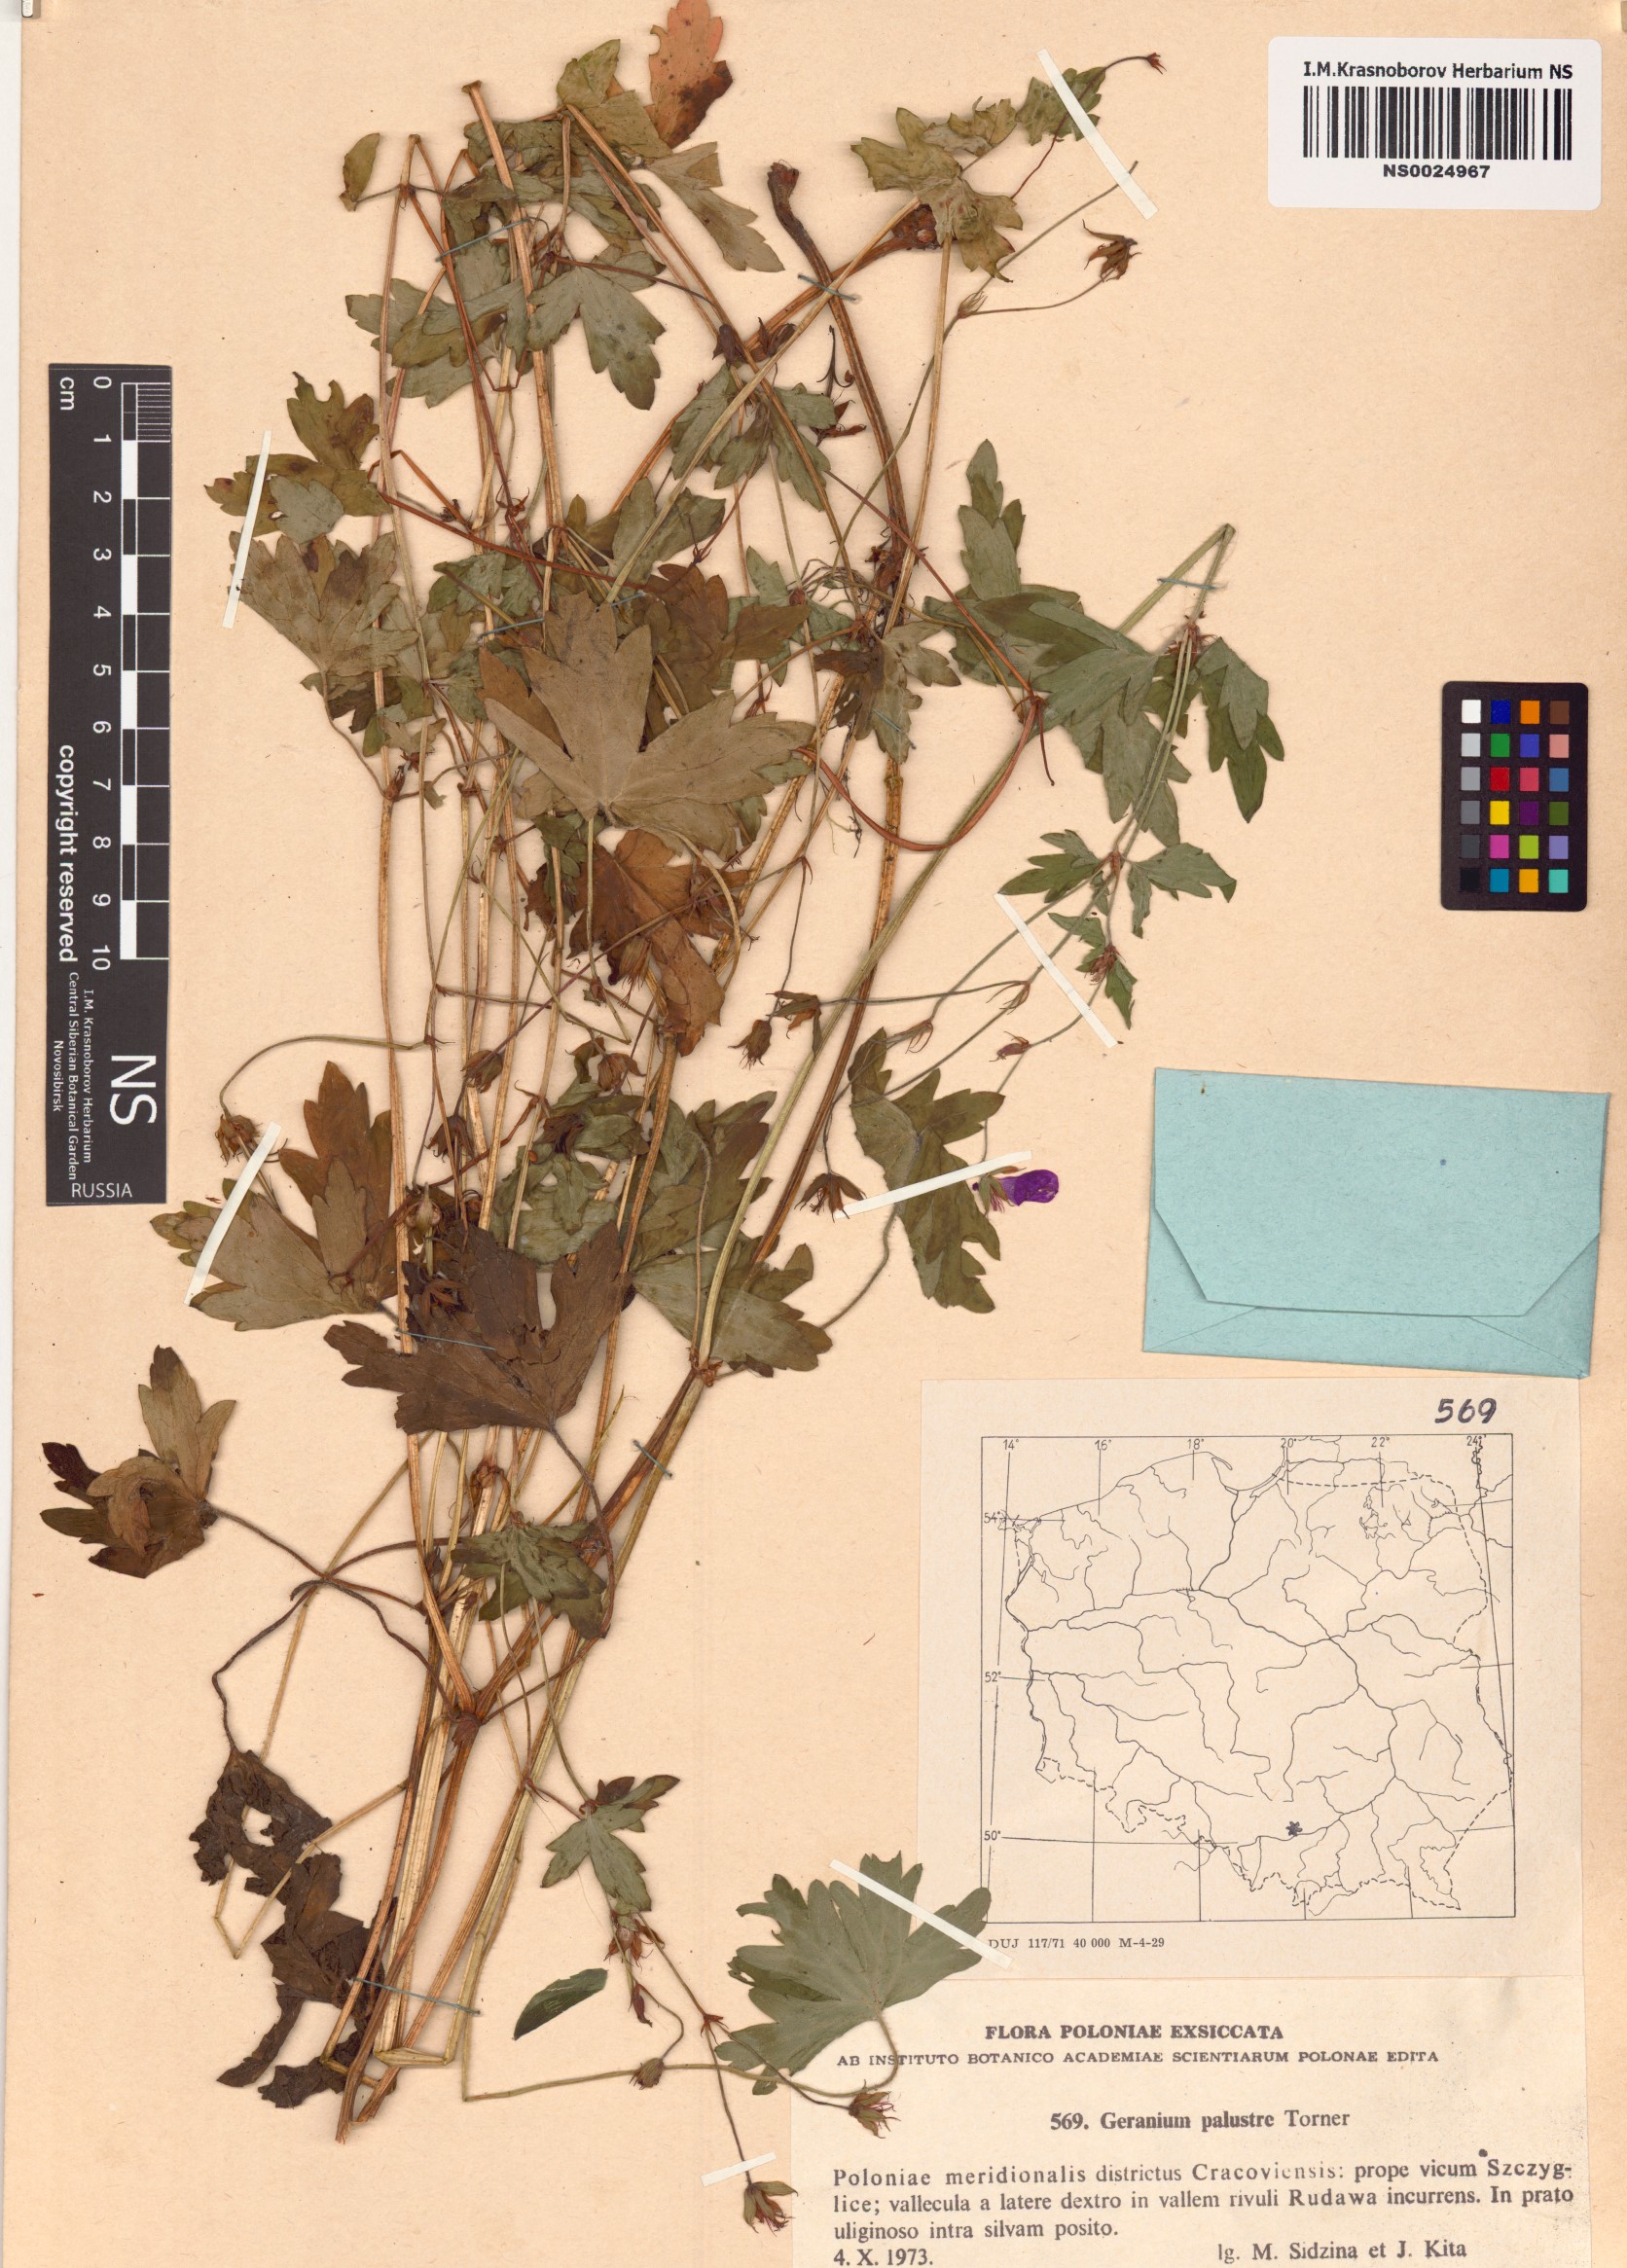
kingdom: Plantae
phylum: Tracheophyta
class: Magnoliopsida
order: Geraniales
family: Geraniaceae
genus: Geranium
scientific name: Geranium palustre
